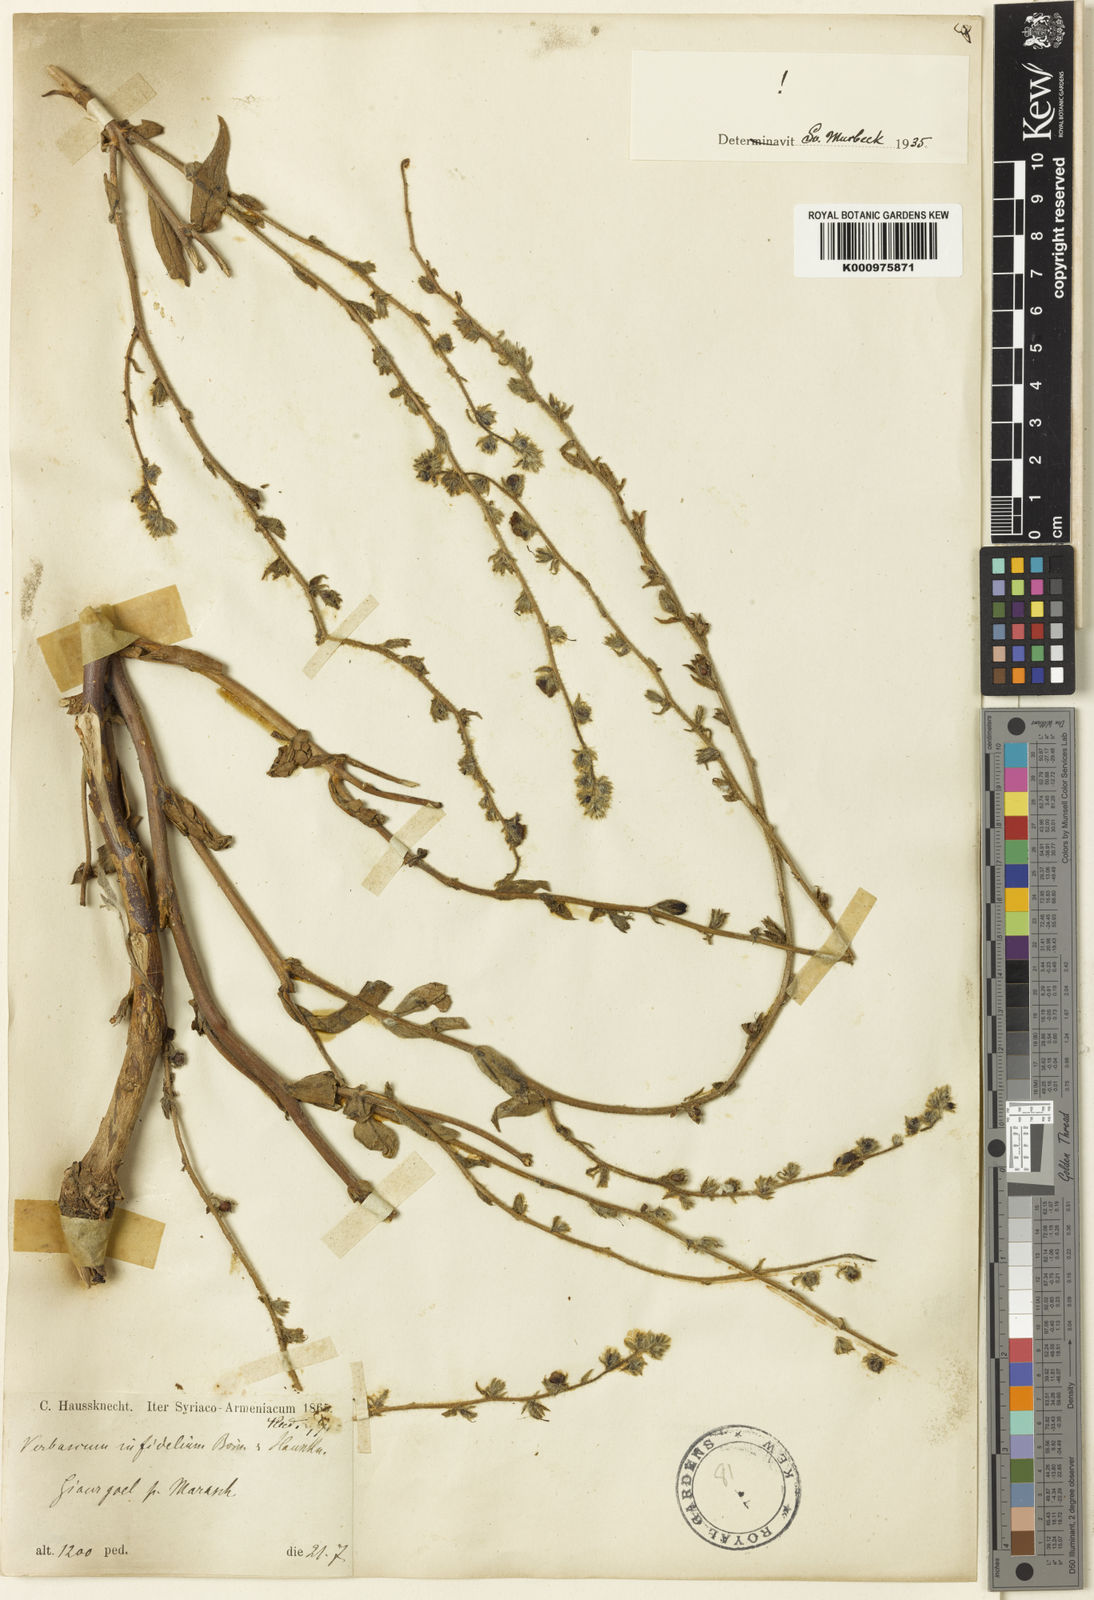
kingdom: Plantae
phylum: Tracheophyta
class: Magnoliopsida
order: Lamiales
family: Scrophulariaceae
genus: Verbascum
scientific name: Verbascum infidelium
